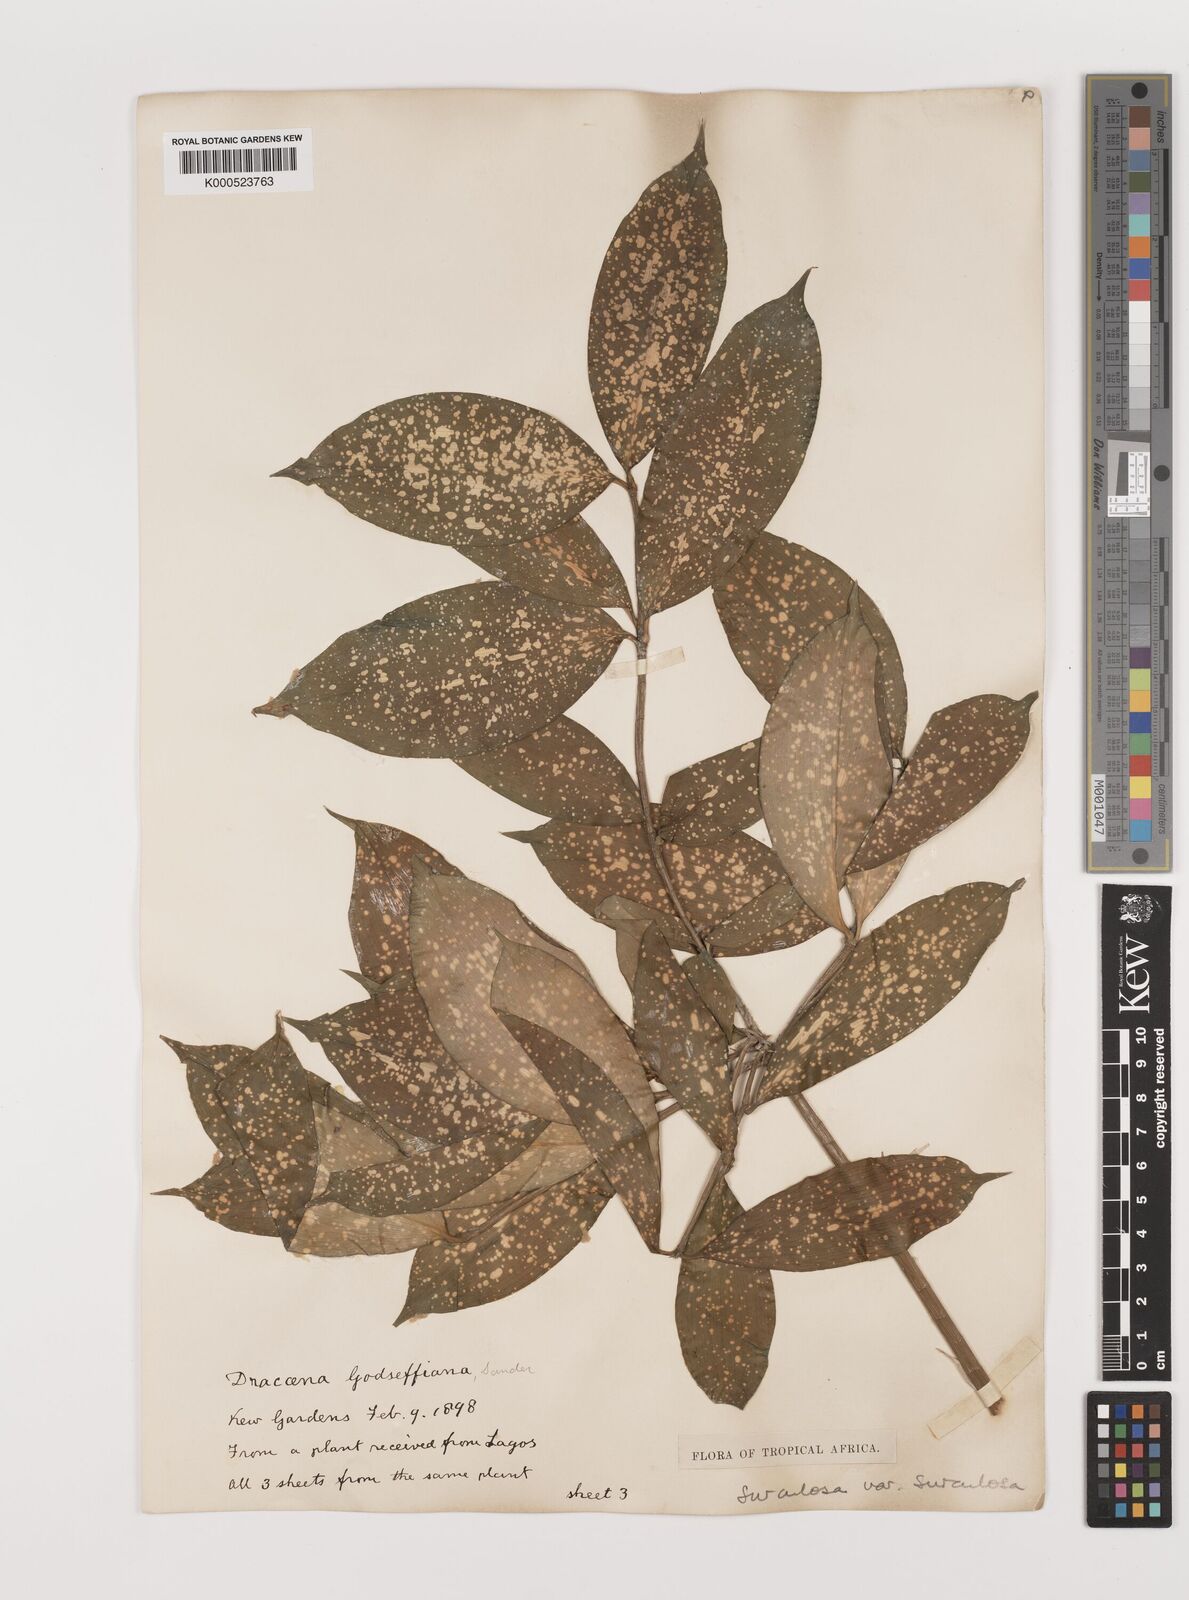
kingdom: Plantae
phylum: Tracheophyta
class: Liliopsida
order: Asparagales
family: Asparagaceae
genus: Dracaena
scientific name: Dracaena surculosa
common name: Spotted dracaena
